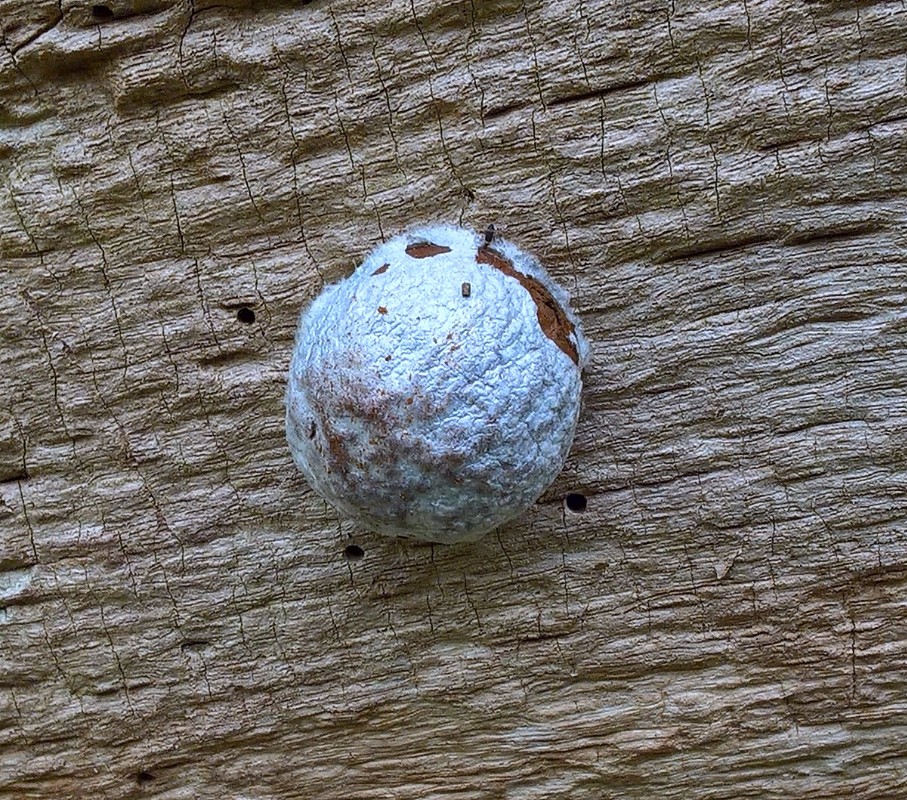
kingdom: Protozoa
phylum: Mycetozoa
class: Myxomycetes
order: Cribrariales
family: Tubiferaceae
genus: Reticularia
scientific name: Reticularia lycoperdon
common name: skinnende støvpude
